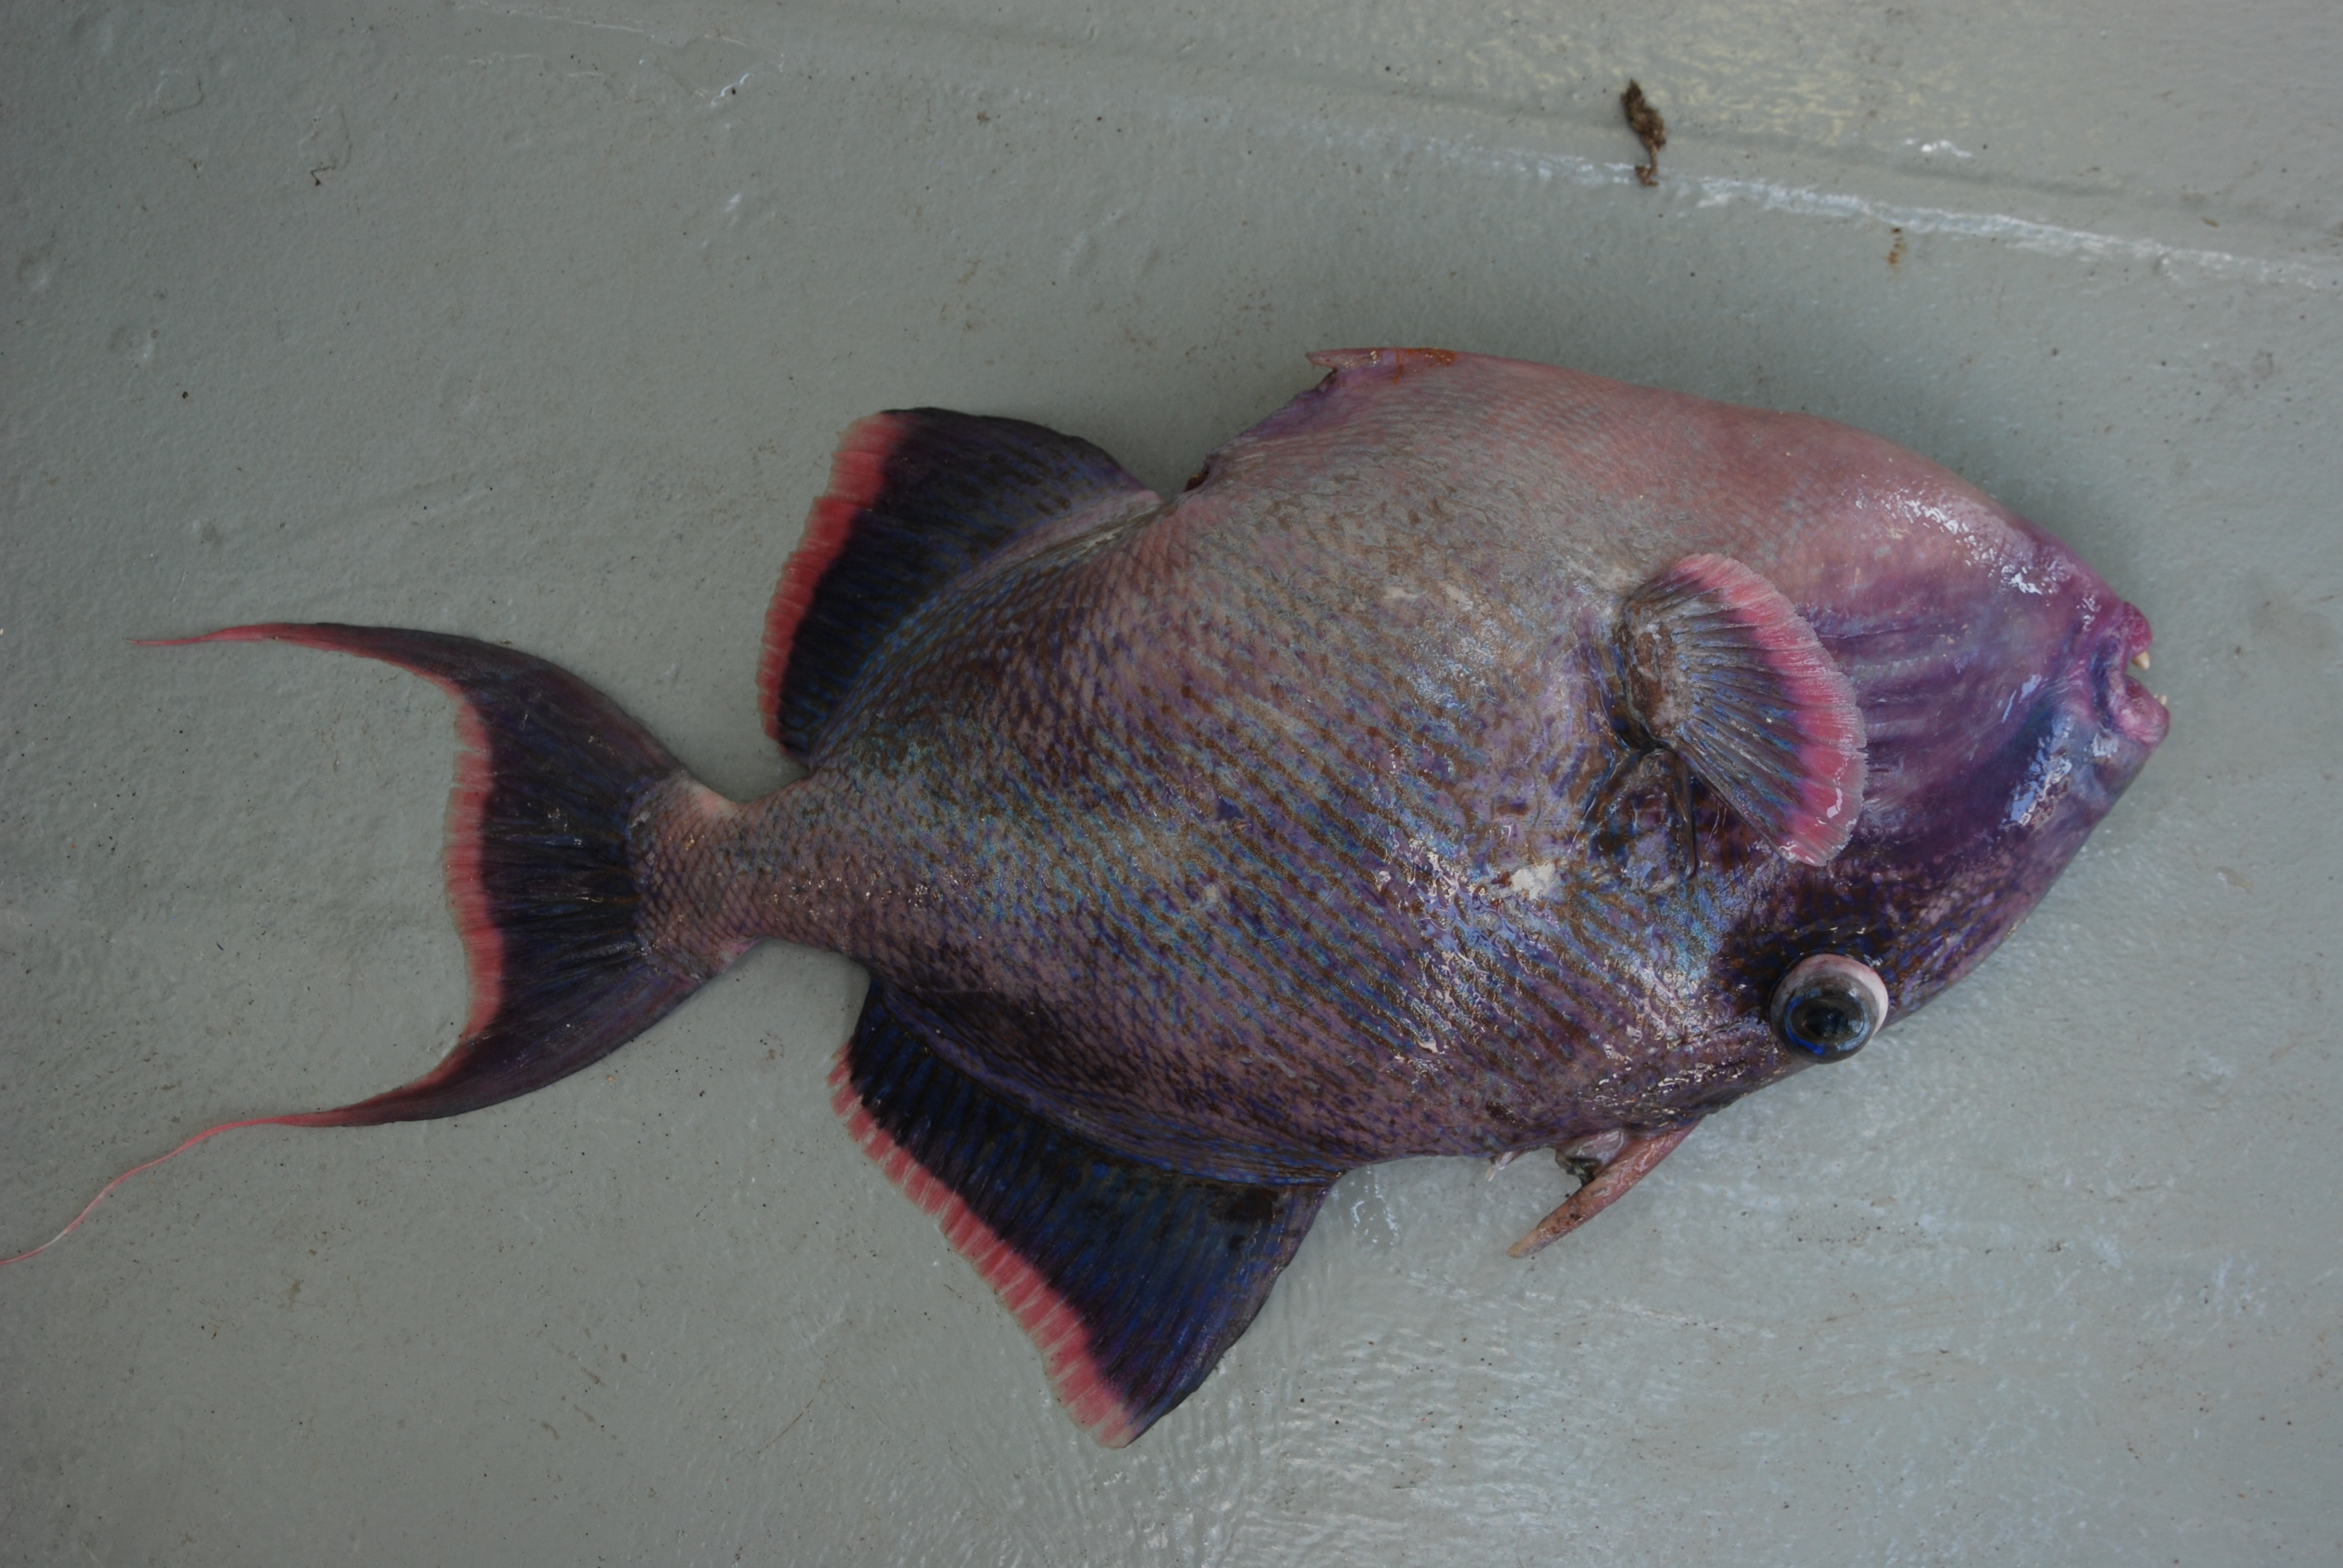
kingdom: Animalia
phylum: Chordata
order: Tetraodontiformes
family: Balistidae
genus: Pseudobalistes
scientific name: Pseudobalistes fuscus
